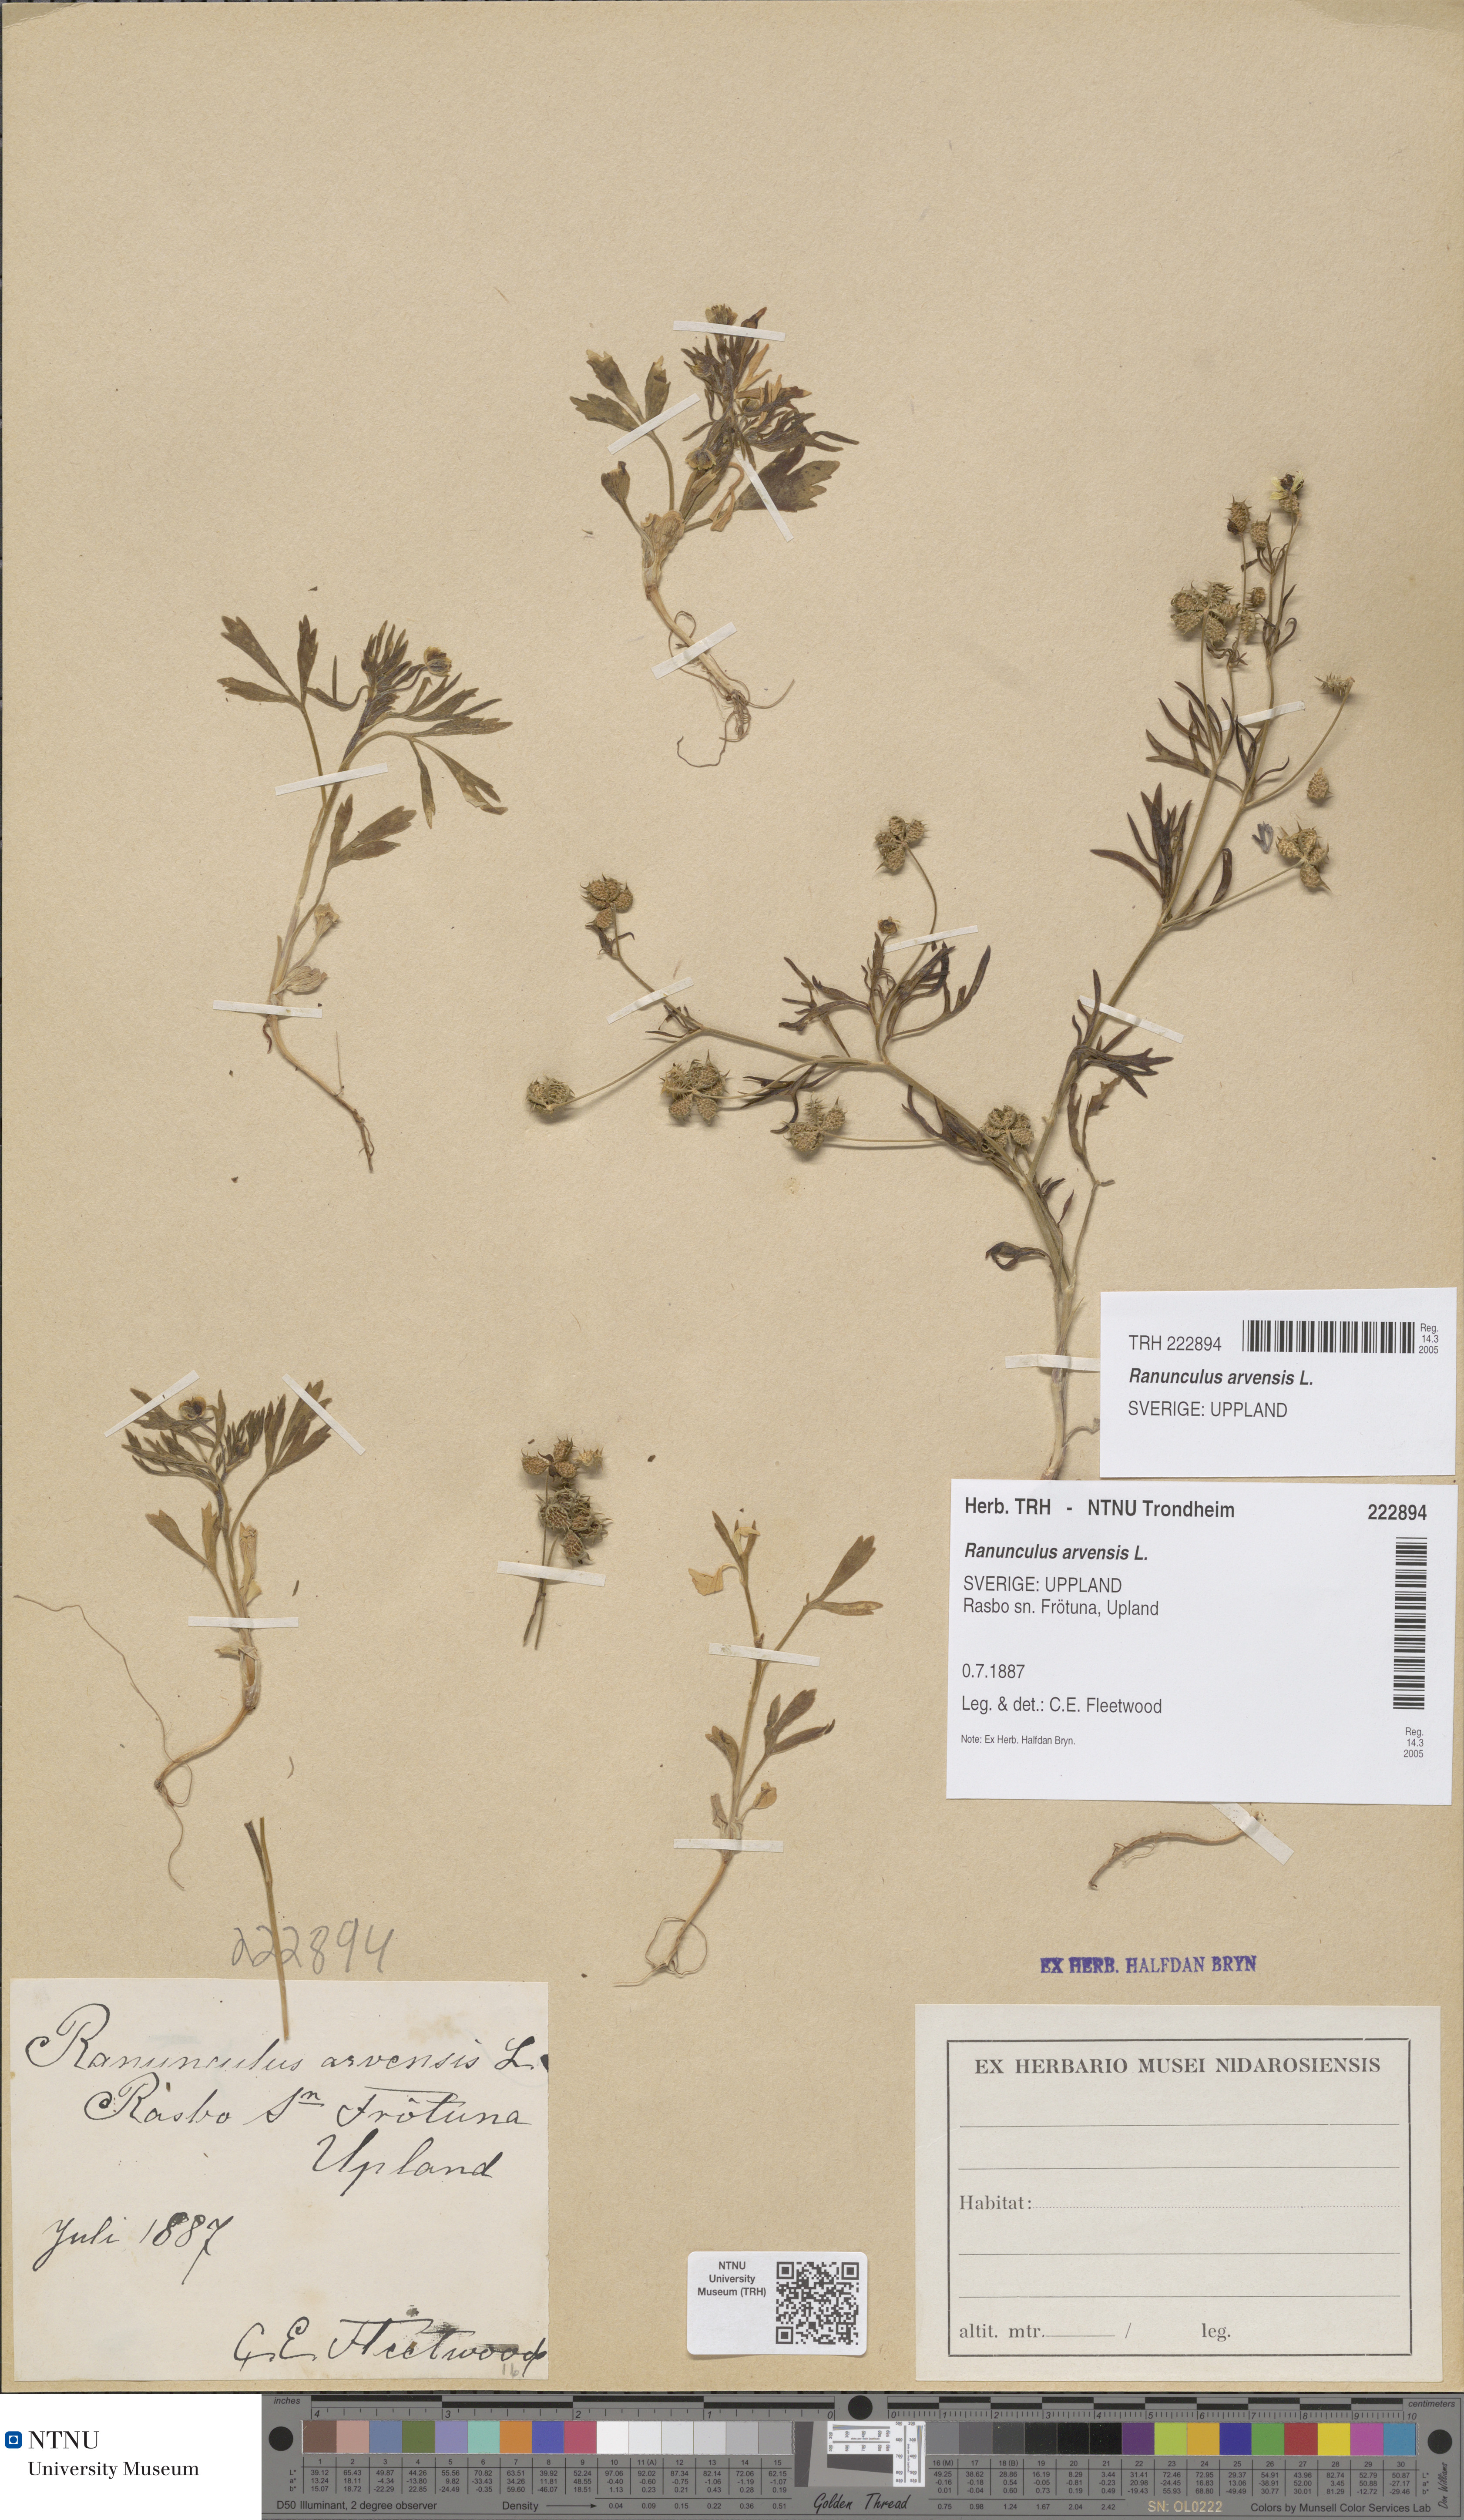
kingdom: Plantae
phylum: Tracheophyta
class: Magnoliopsida
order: Ranunculales
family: Ranunculaceae
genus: Ranunculus
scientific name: Ranunculus arvensis
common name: Corn buttercup
